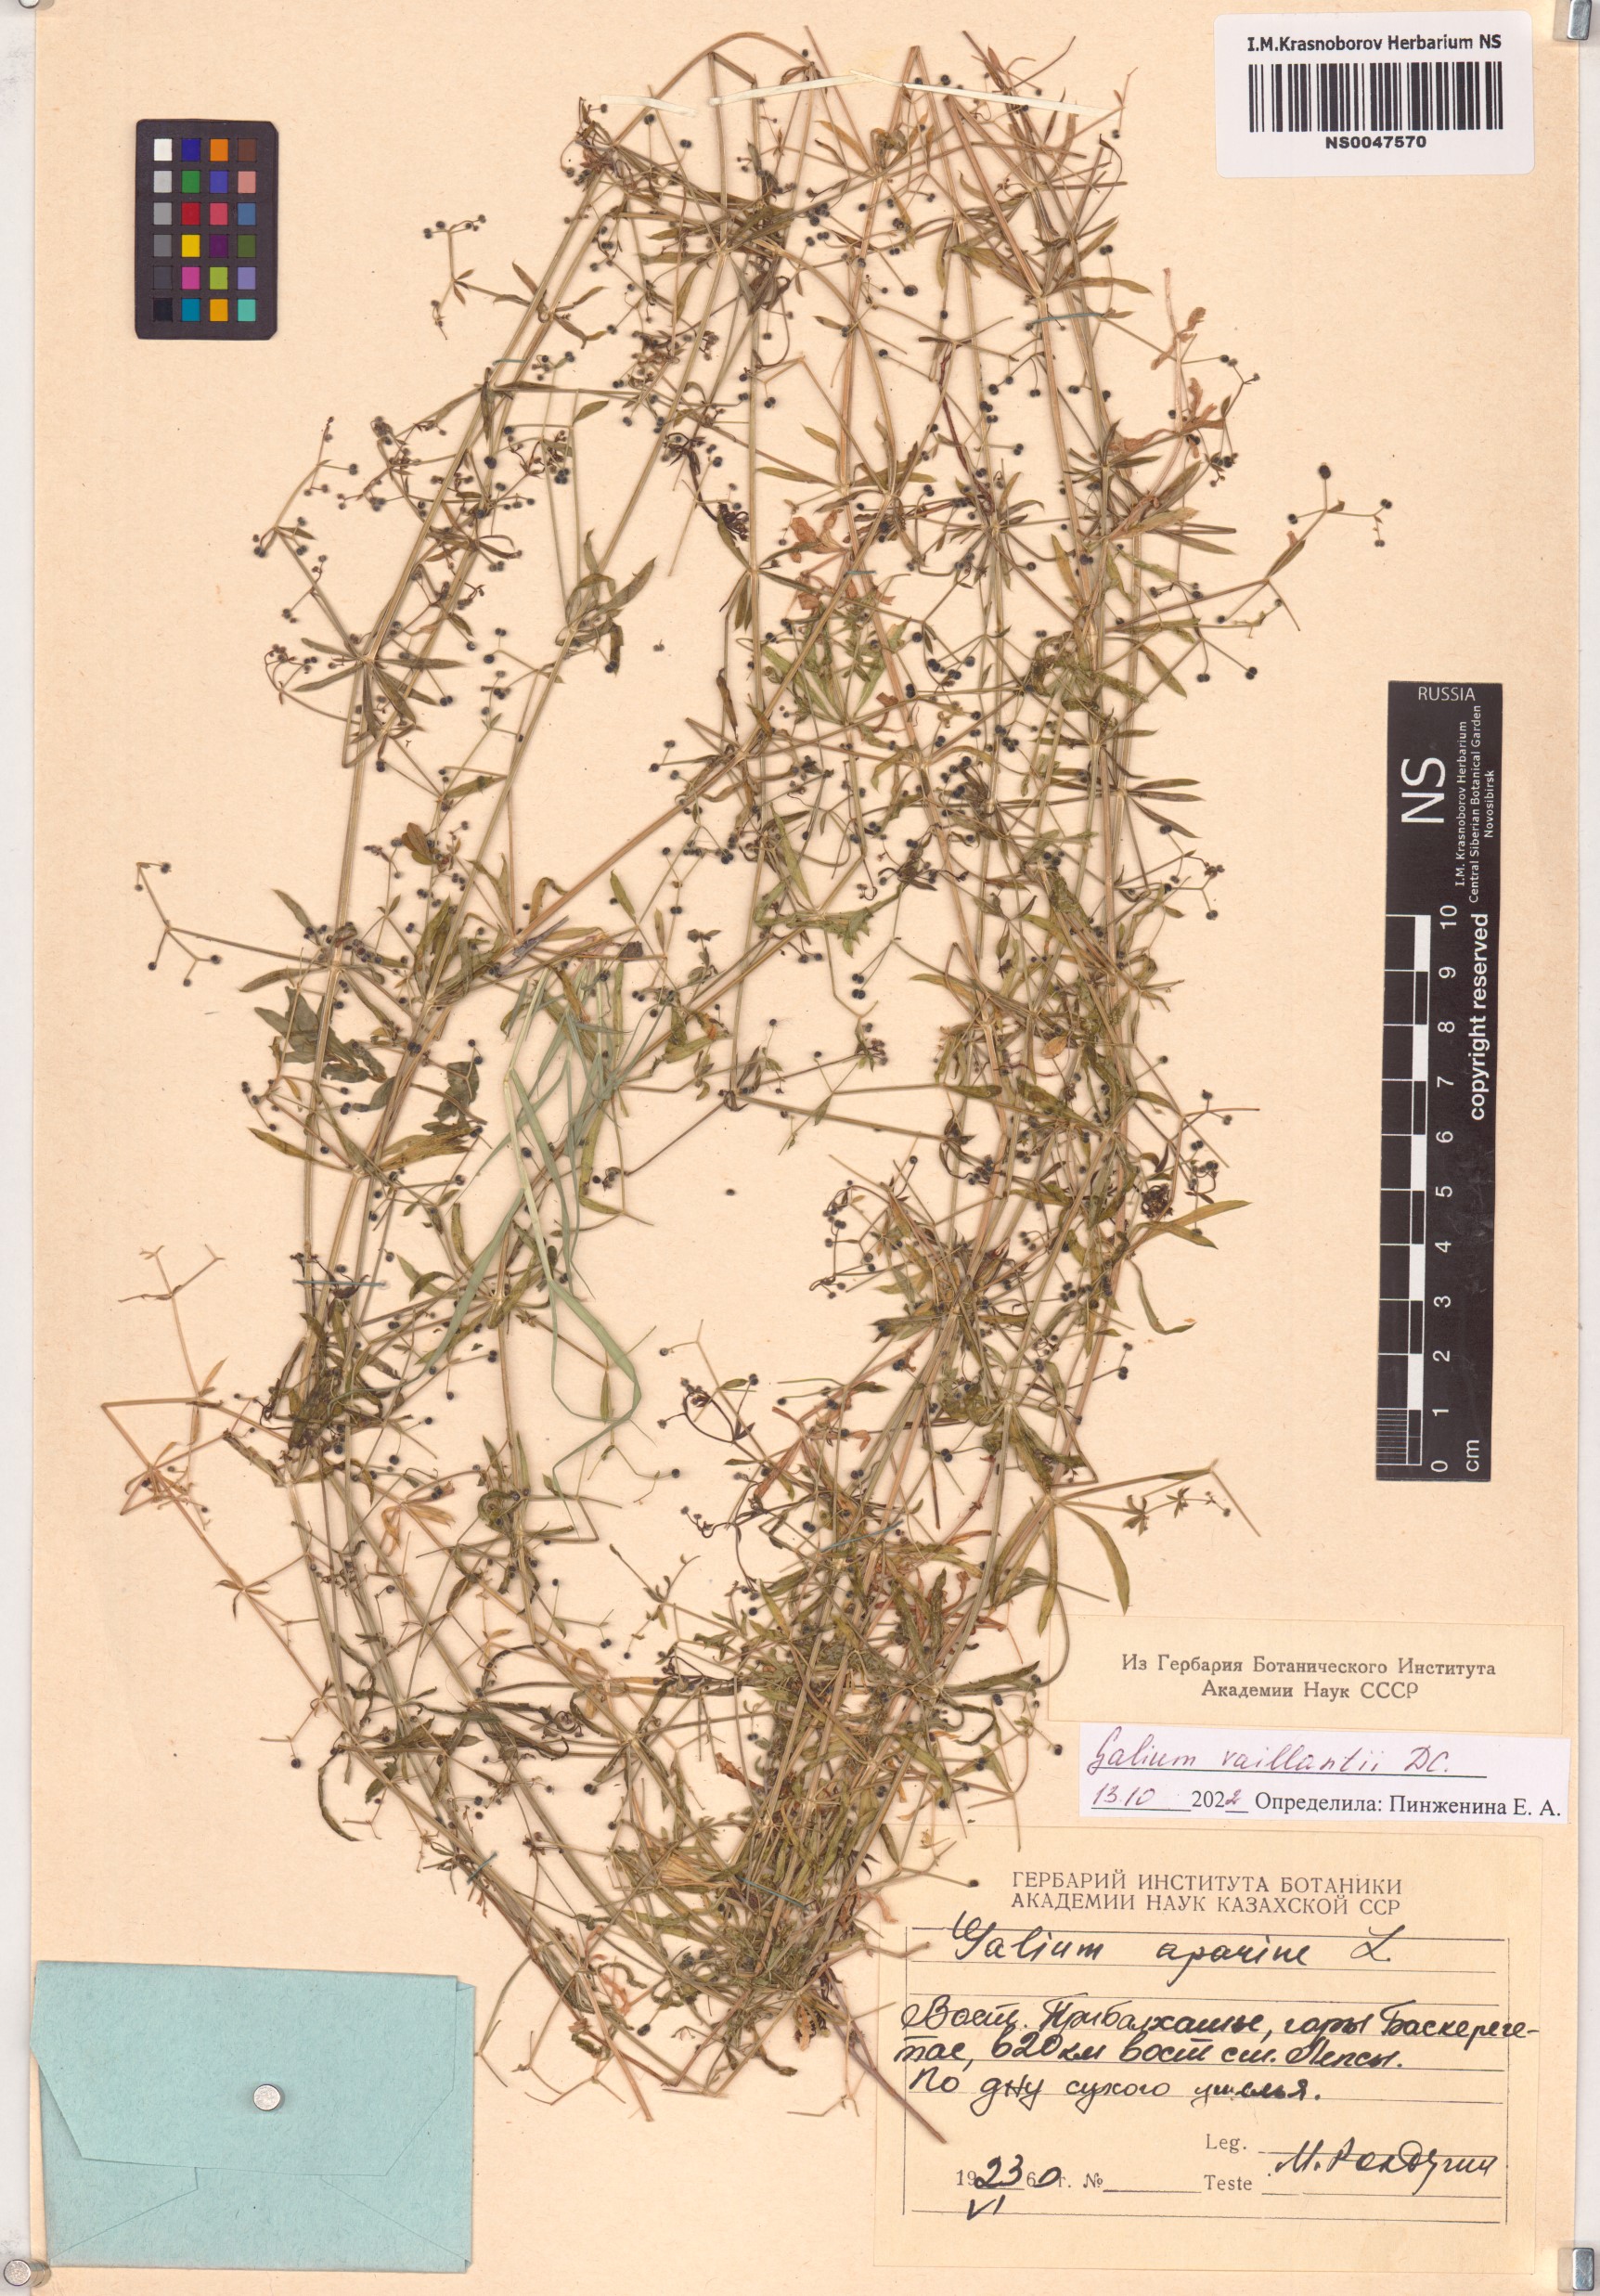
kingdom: Plantae
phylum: Tracheophyta
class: Magnoliopsida
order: Gentianales
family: Rubiaceae
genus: Galium
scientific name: Galium spurium
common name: False cleavers
